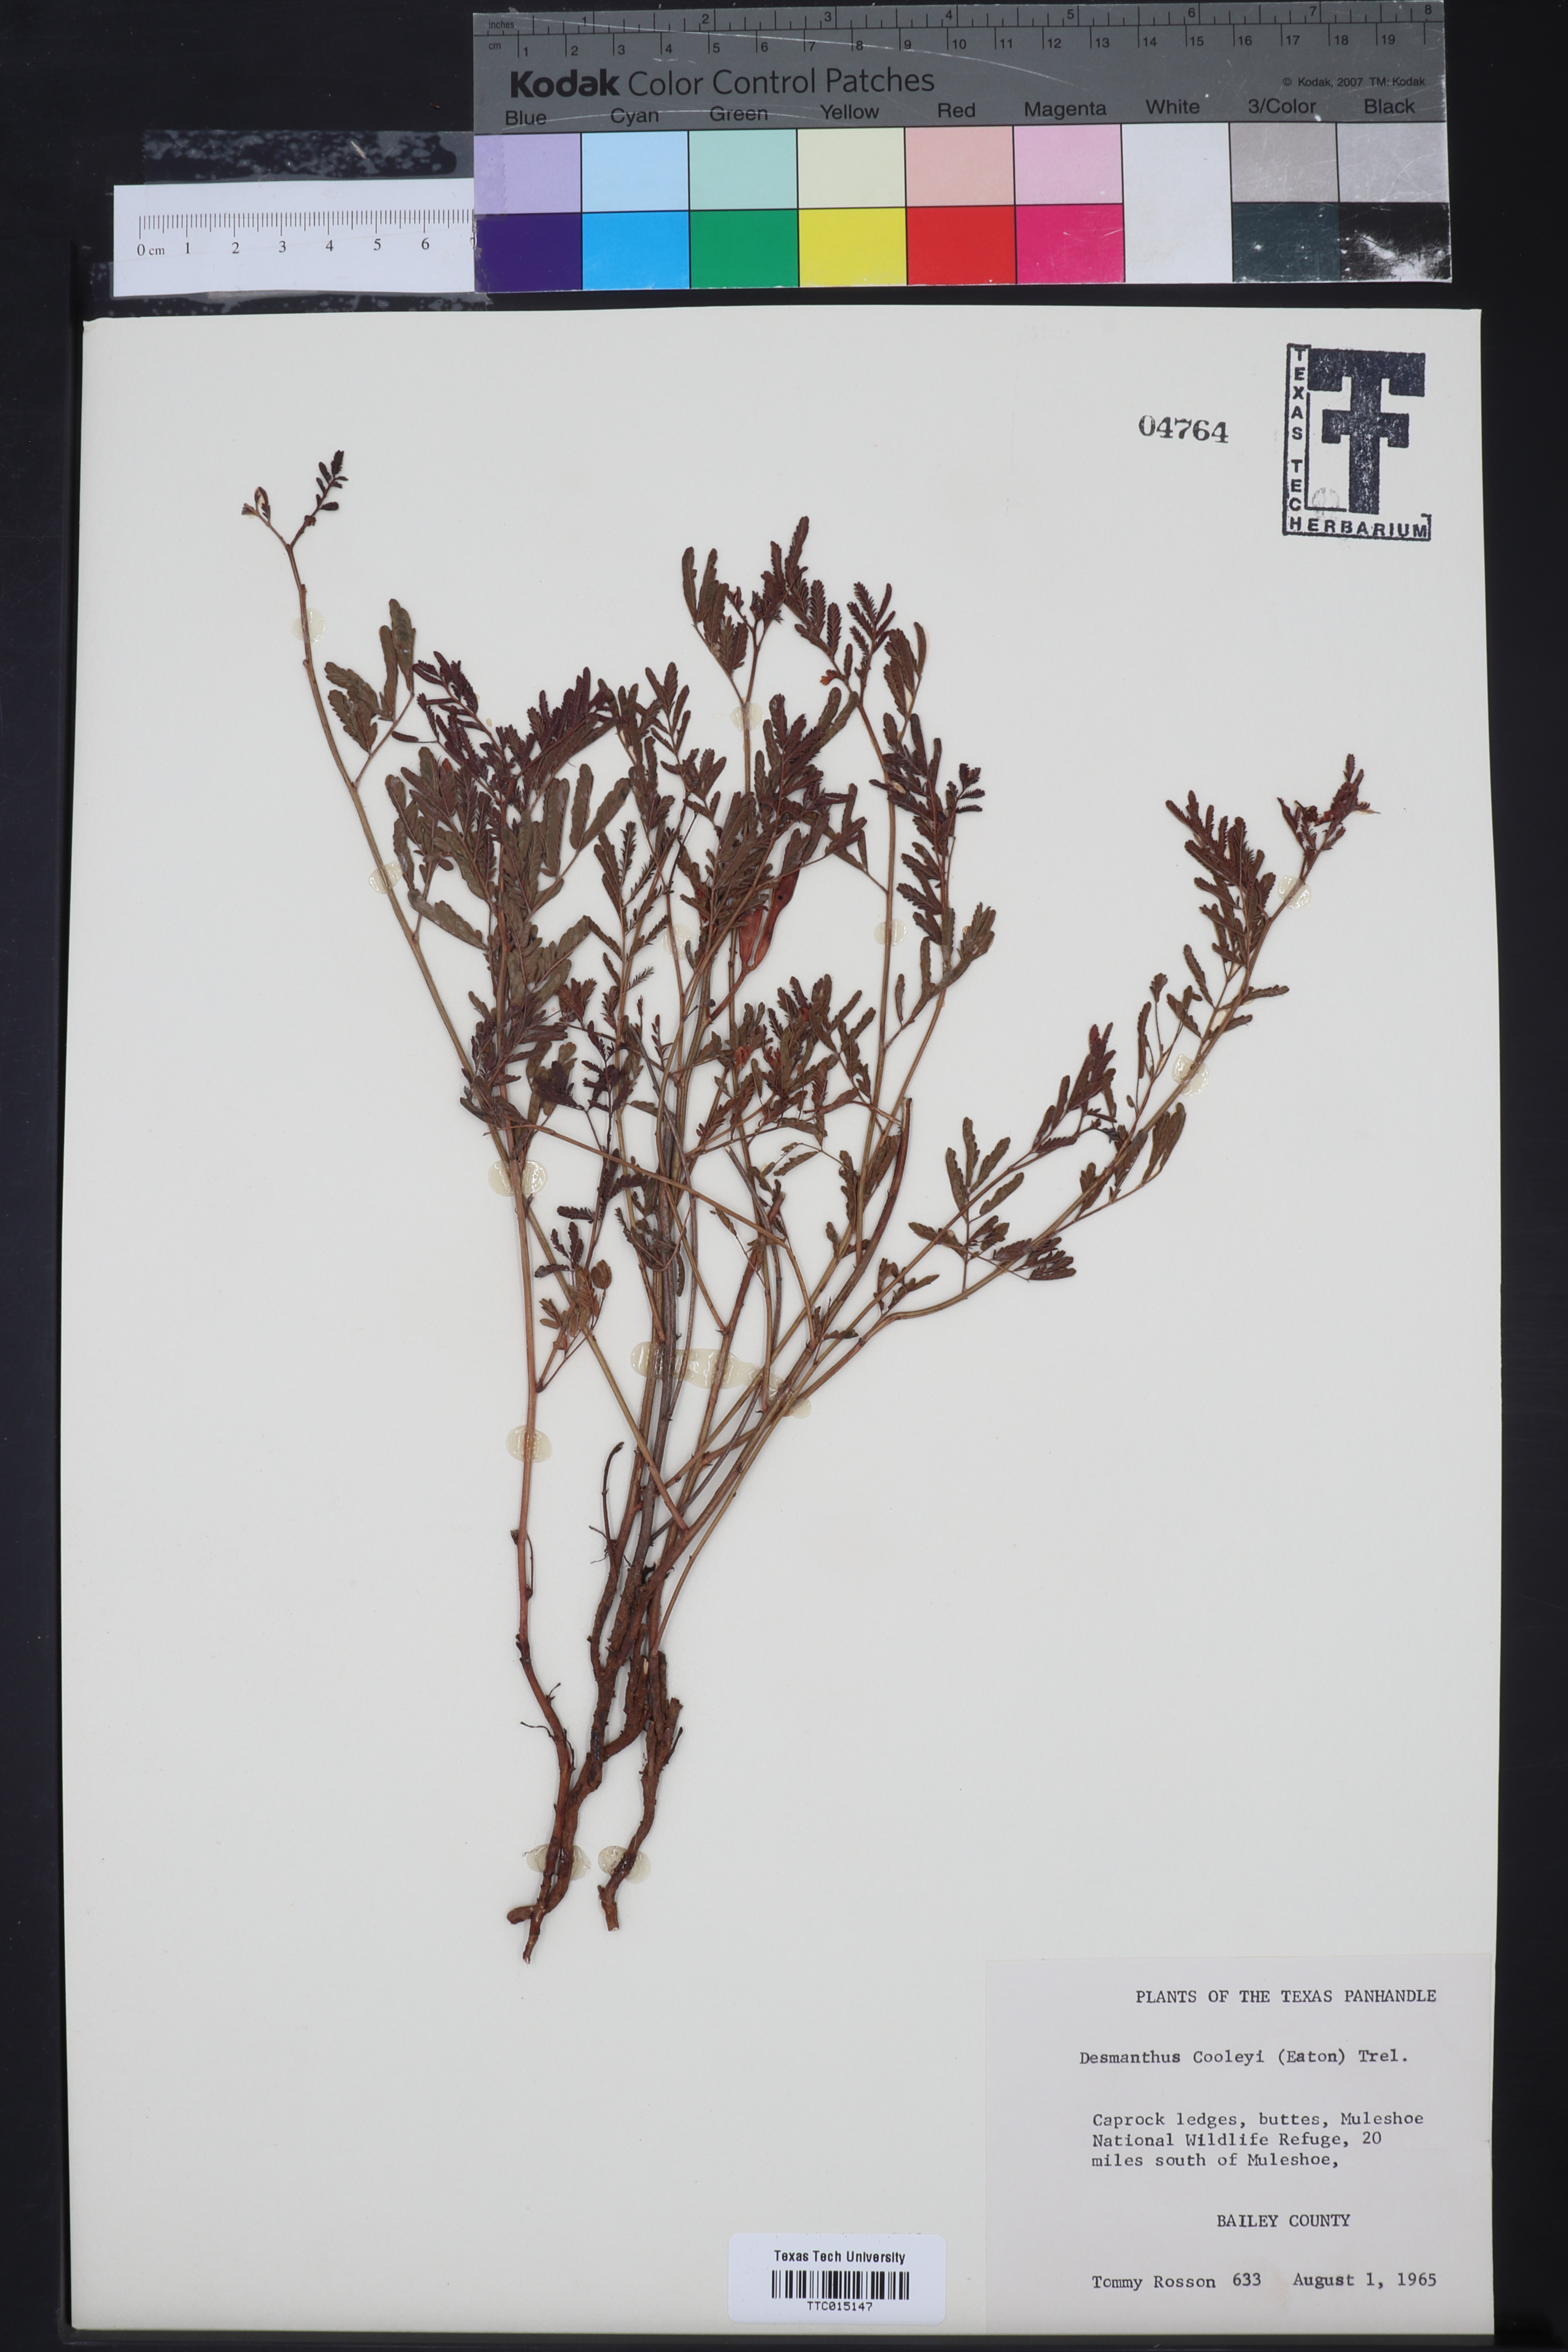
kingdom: Plantae
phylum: Tracheophyta
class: Magnoliopsida
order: Fabales
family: Fabaceae
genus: Desmanthus
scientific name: Desmanthus cooleyi
